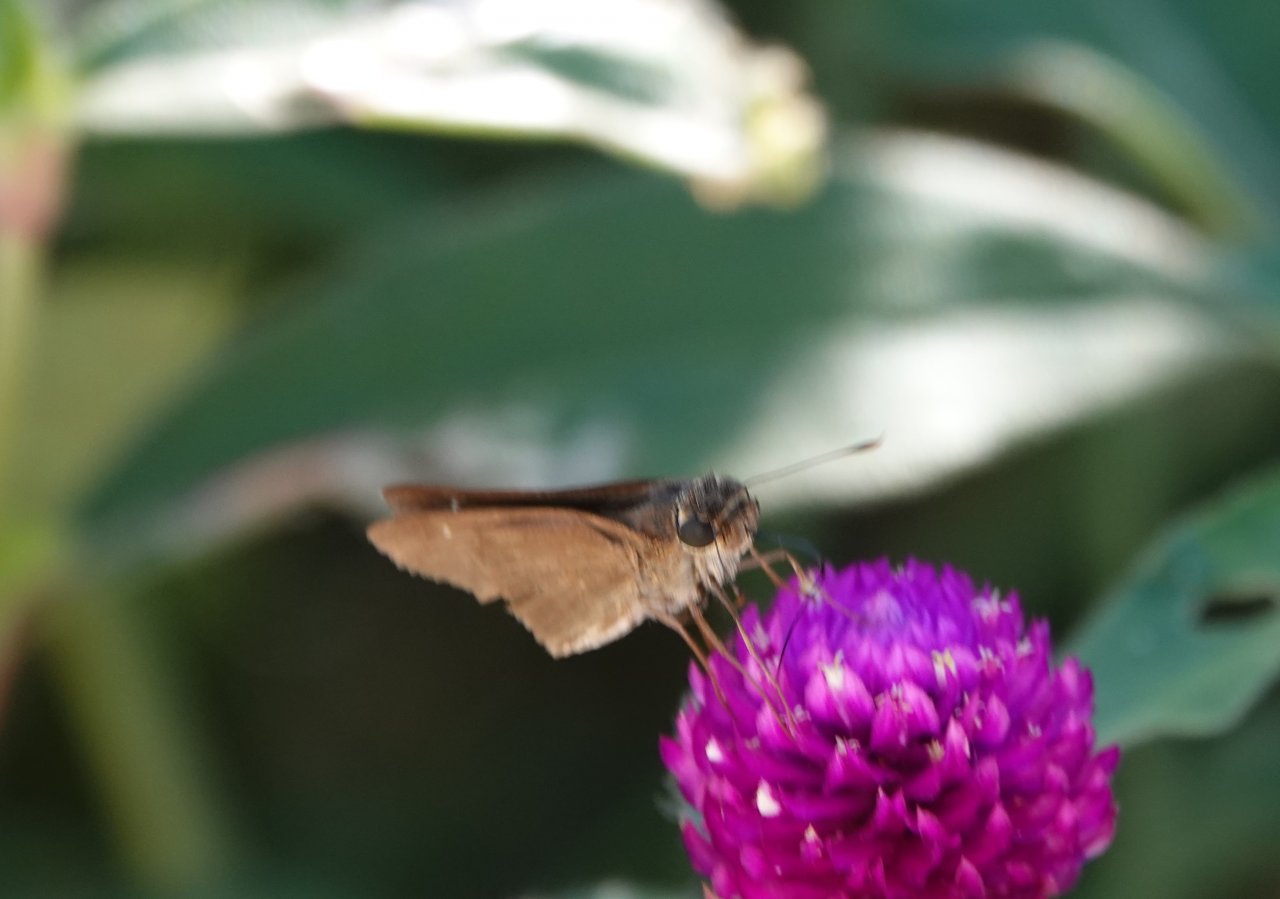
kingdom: Animalia
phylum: Arthropoda
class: Insecta
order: Lepidoptera
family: Hesperiidae
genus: Panoquina
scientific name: Panoquina ocola
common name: Ocola Skipper
